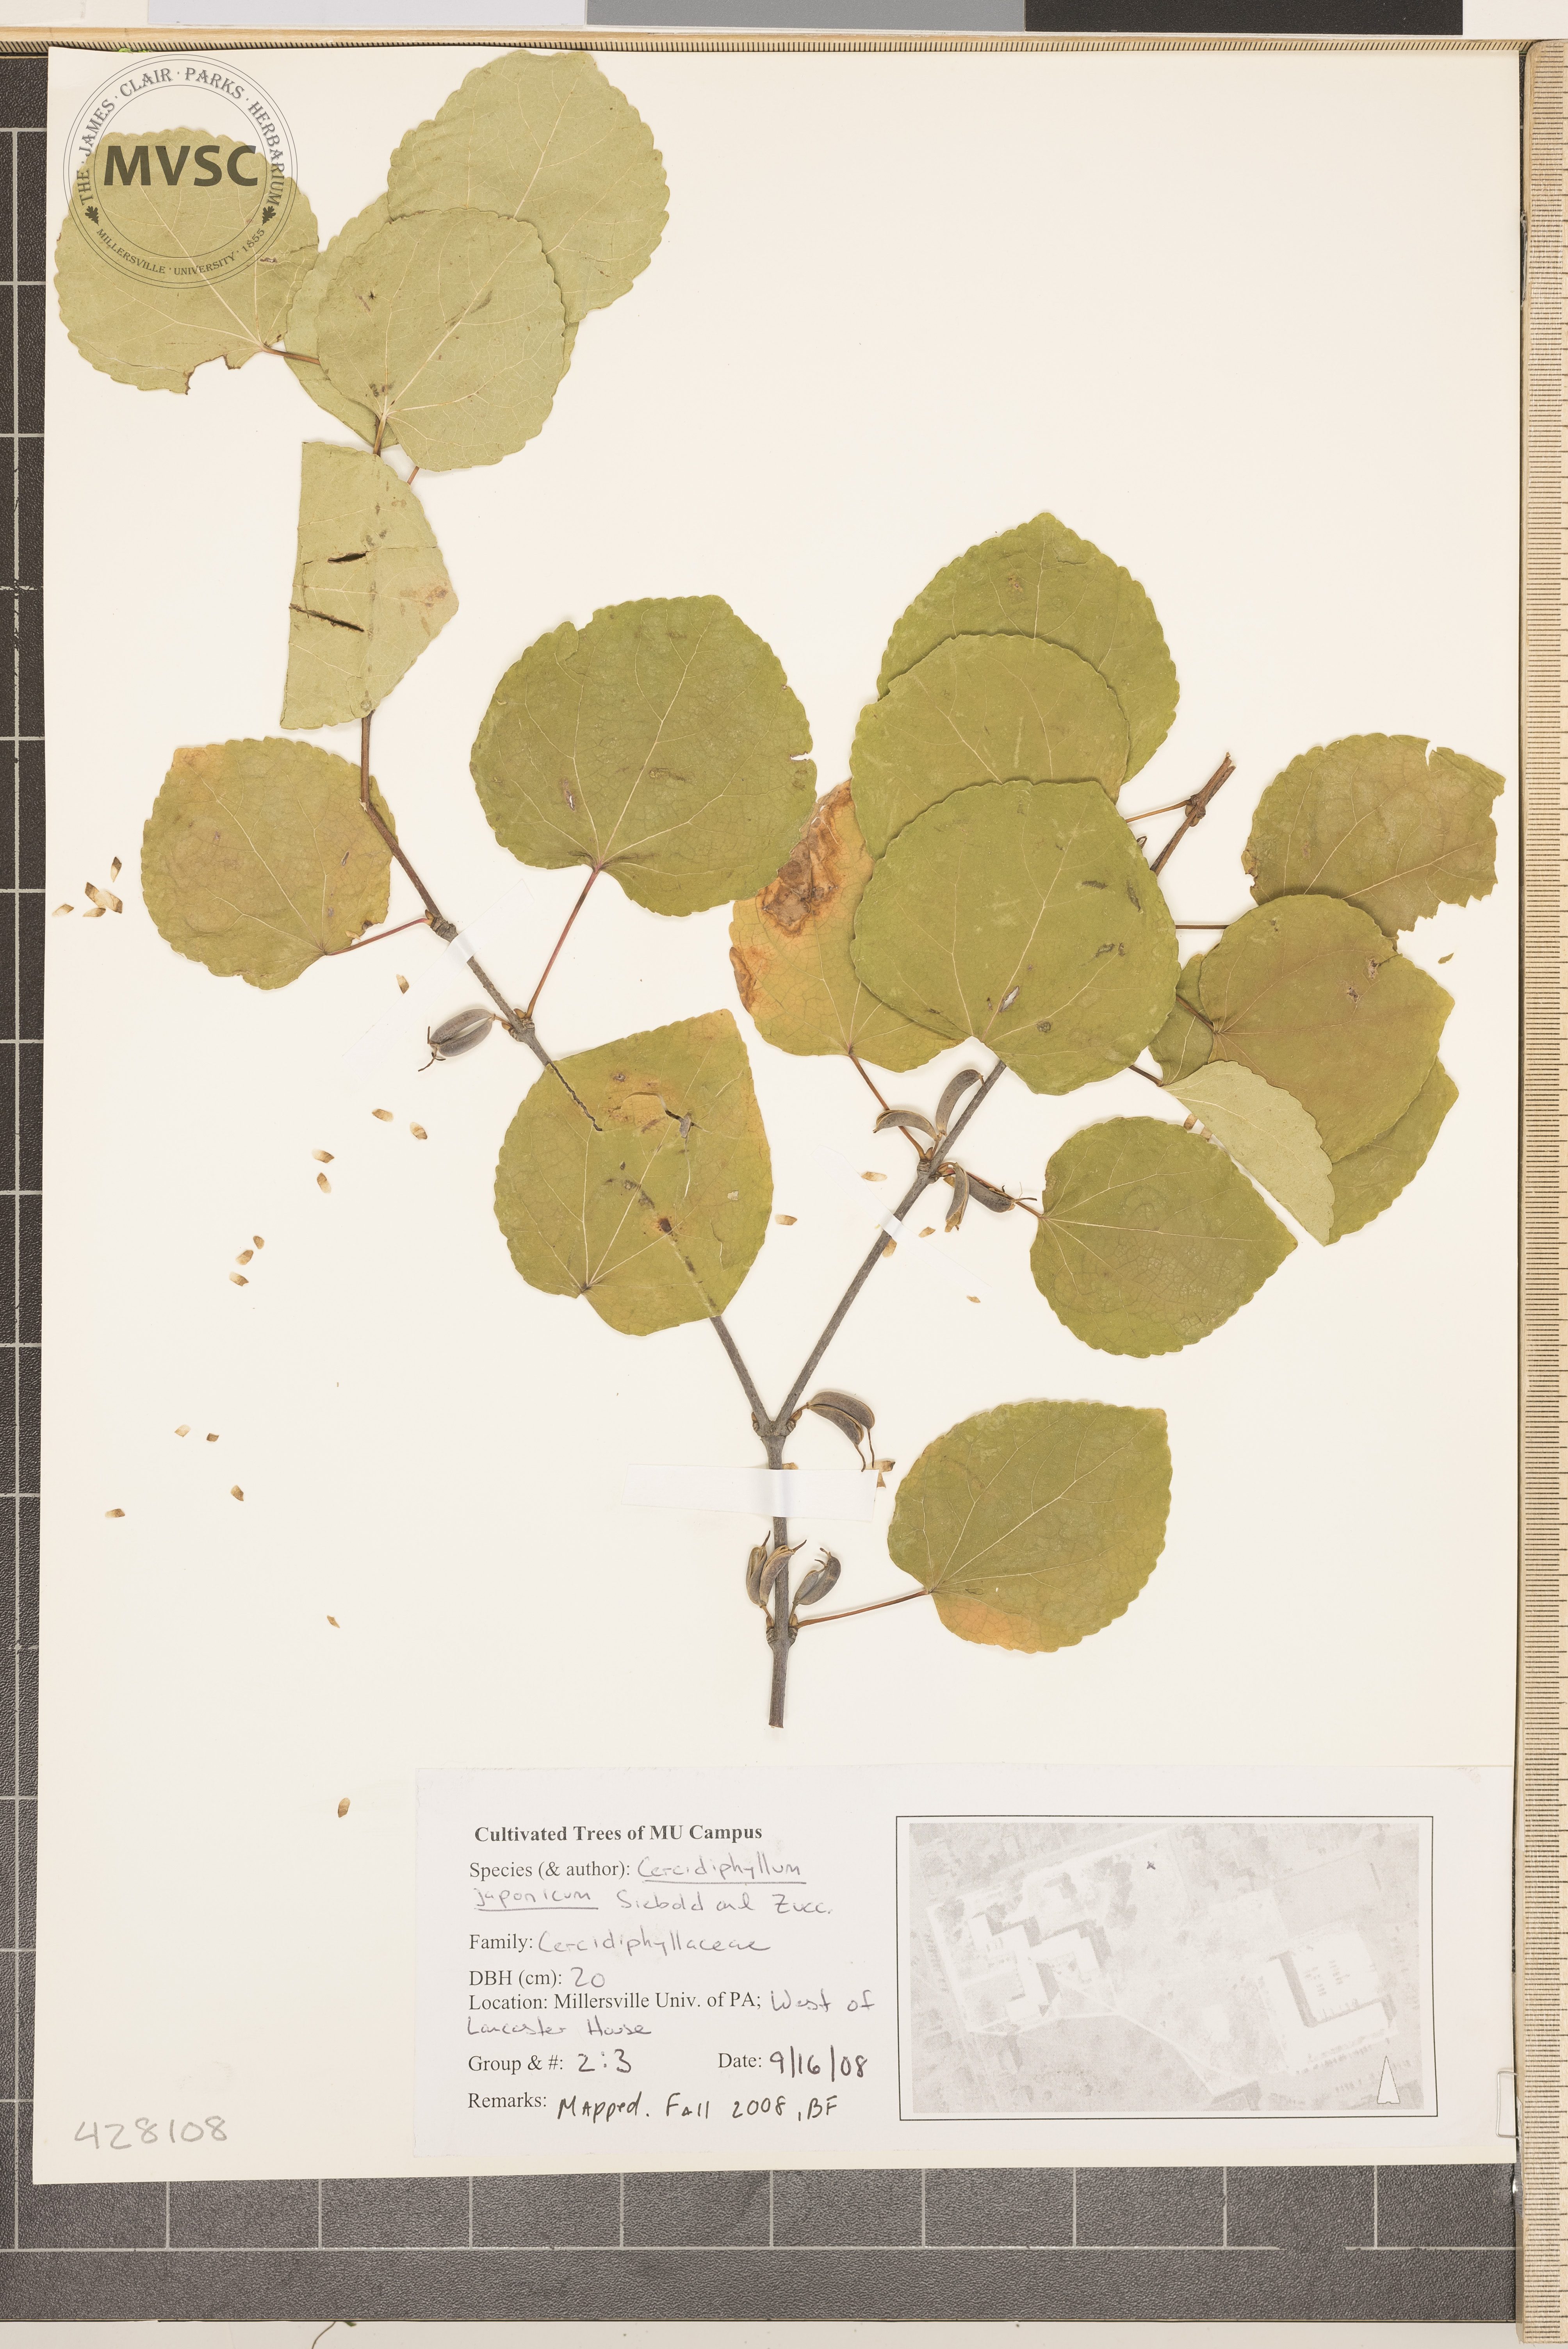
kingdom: Plantae
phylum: Tracheophyta
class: Magnoliopsida
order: Saxifragales
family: Cercidiphyllaceae
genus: Cercidiphyllum
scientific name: Cercidiphyllum japonicum
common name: Katsura Tree
